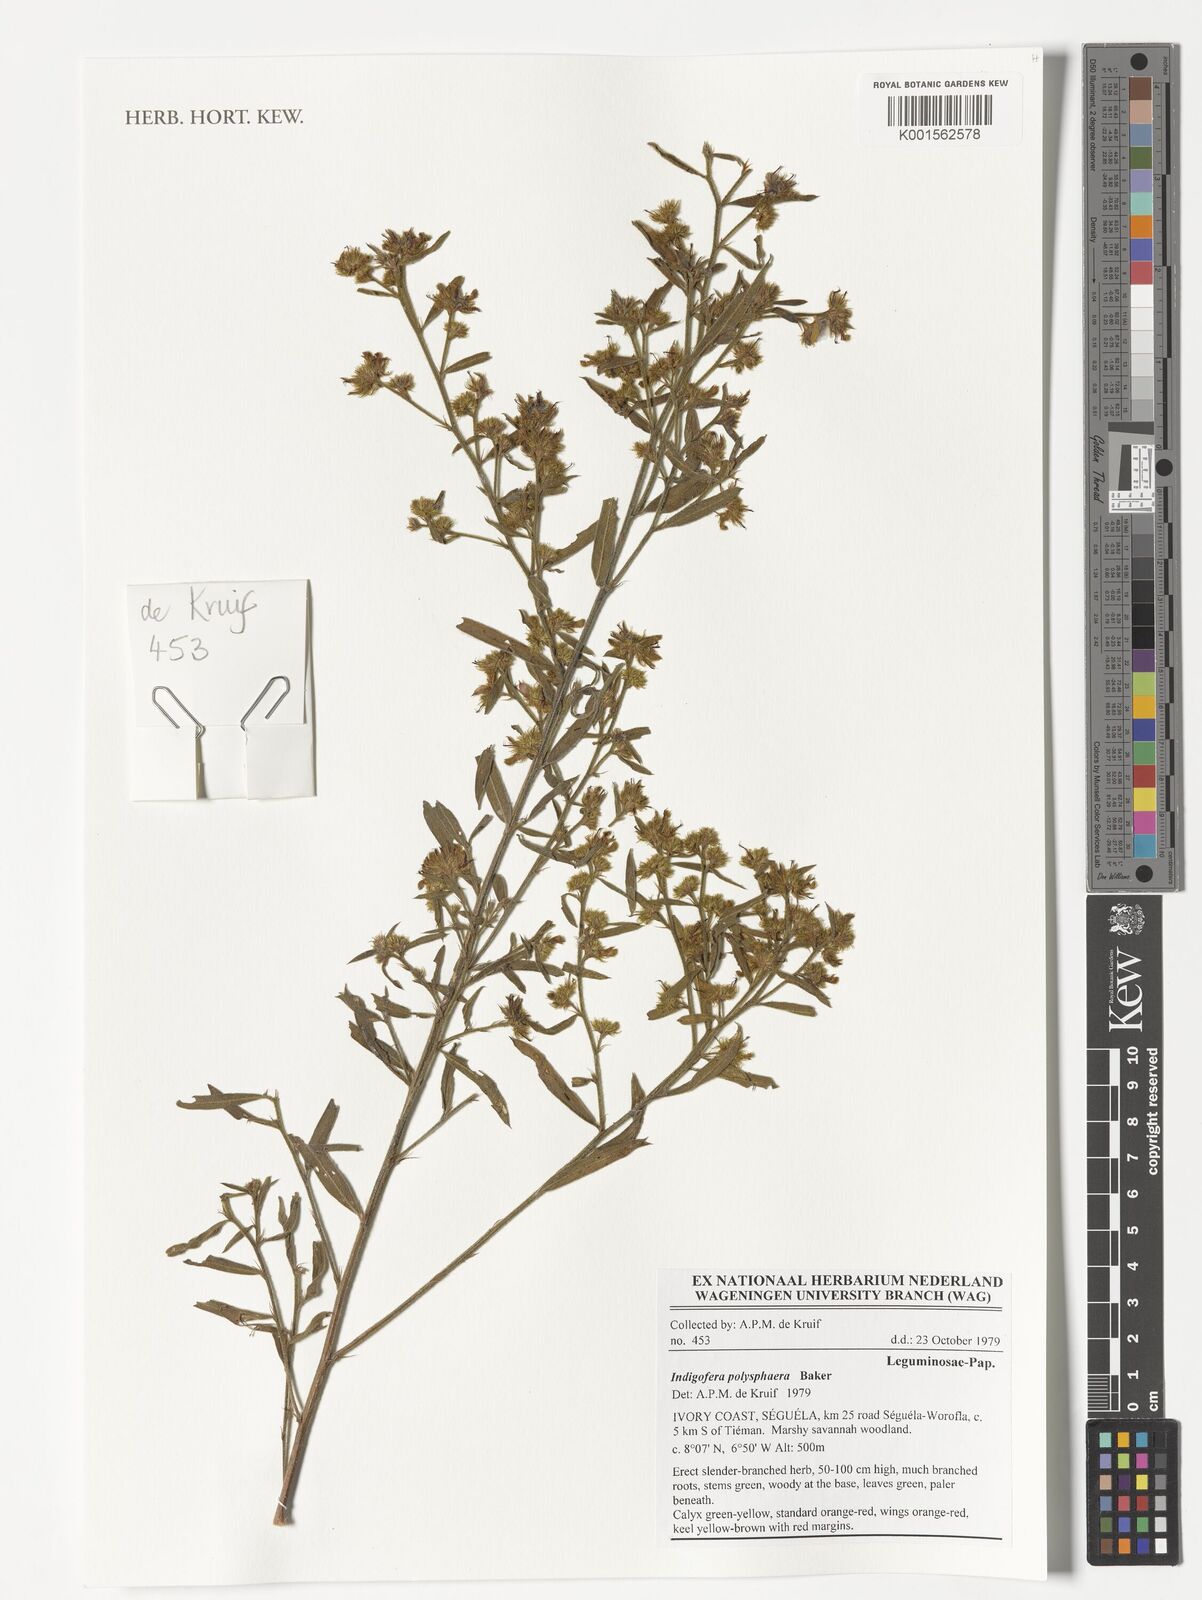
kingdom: Plantae
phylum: Tracheophyta
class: Magnoliopsida
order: Fabales
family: Fabaceae
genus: Indigofera
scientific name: Indigofera polysphaera
